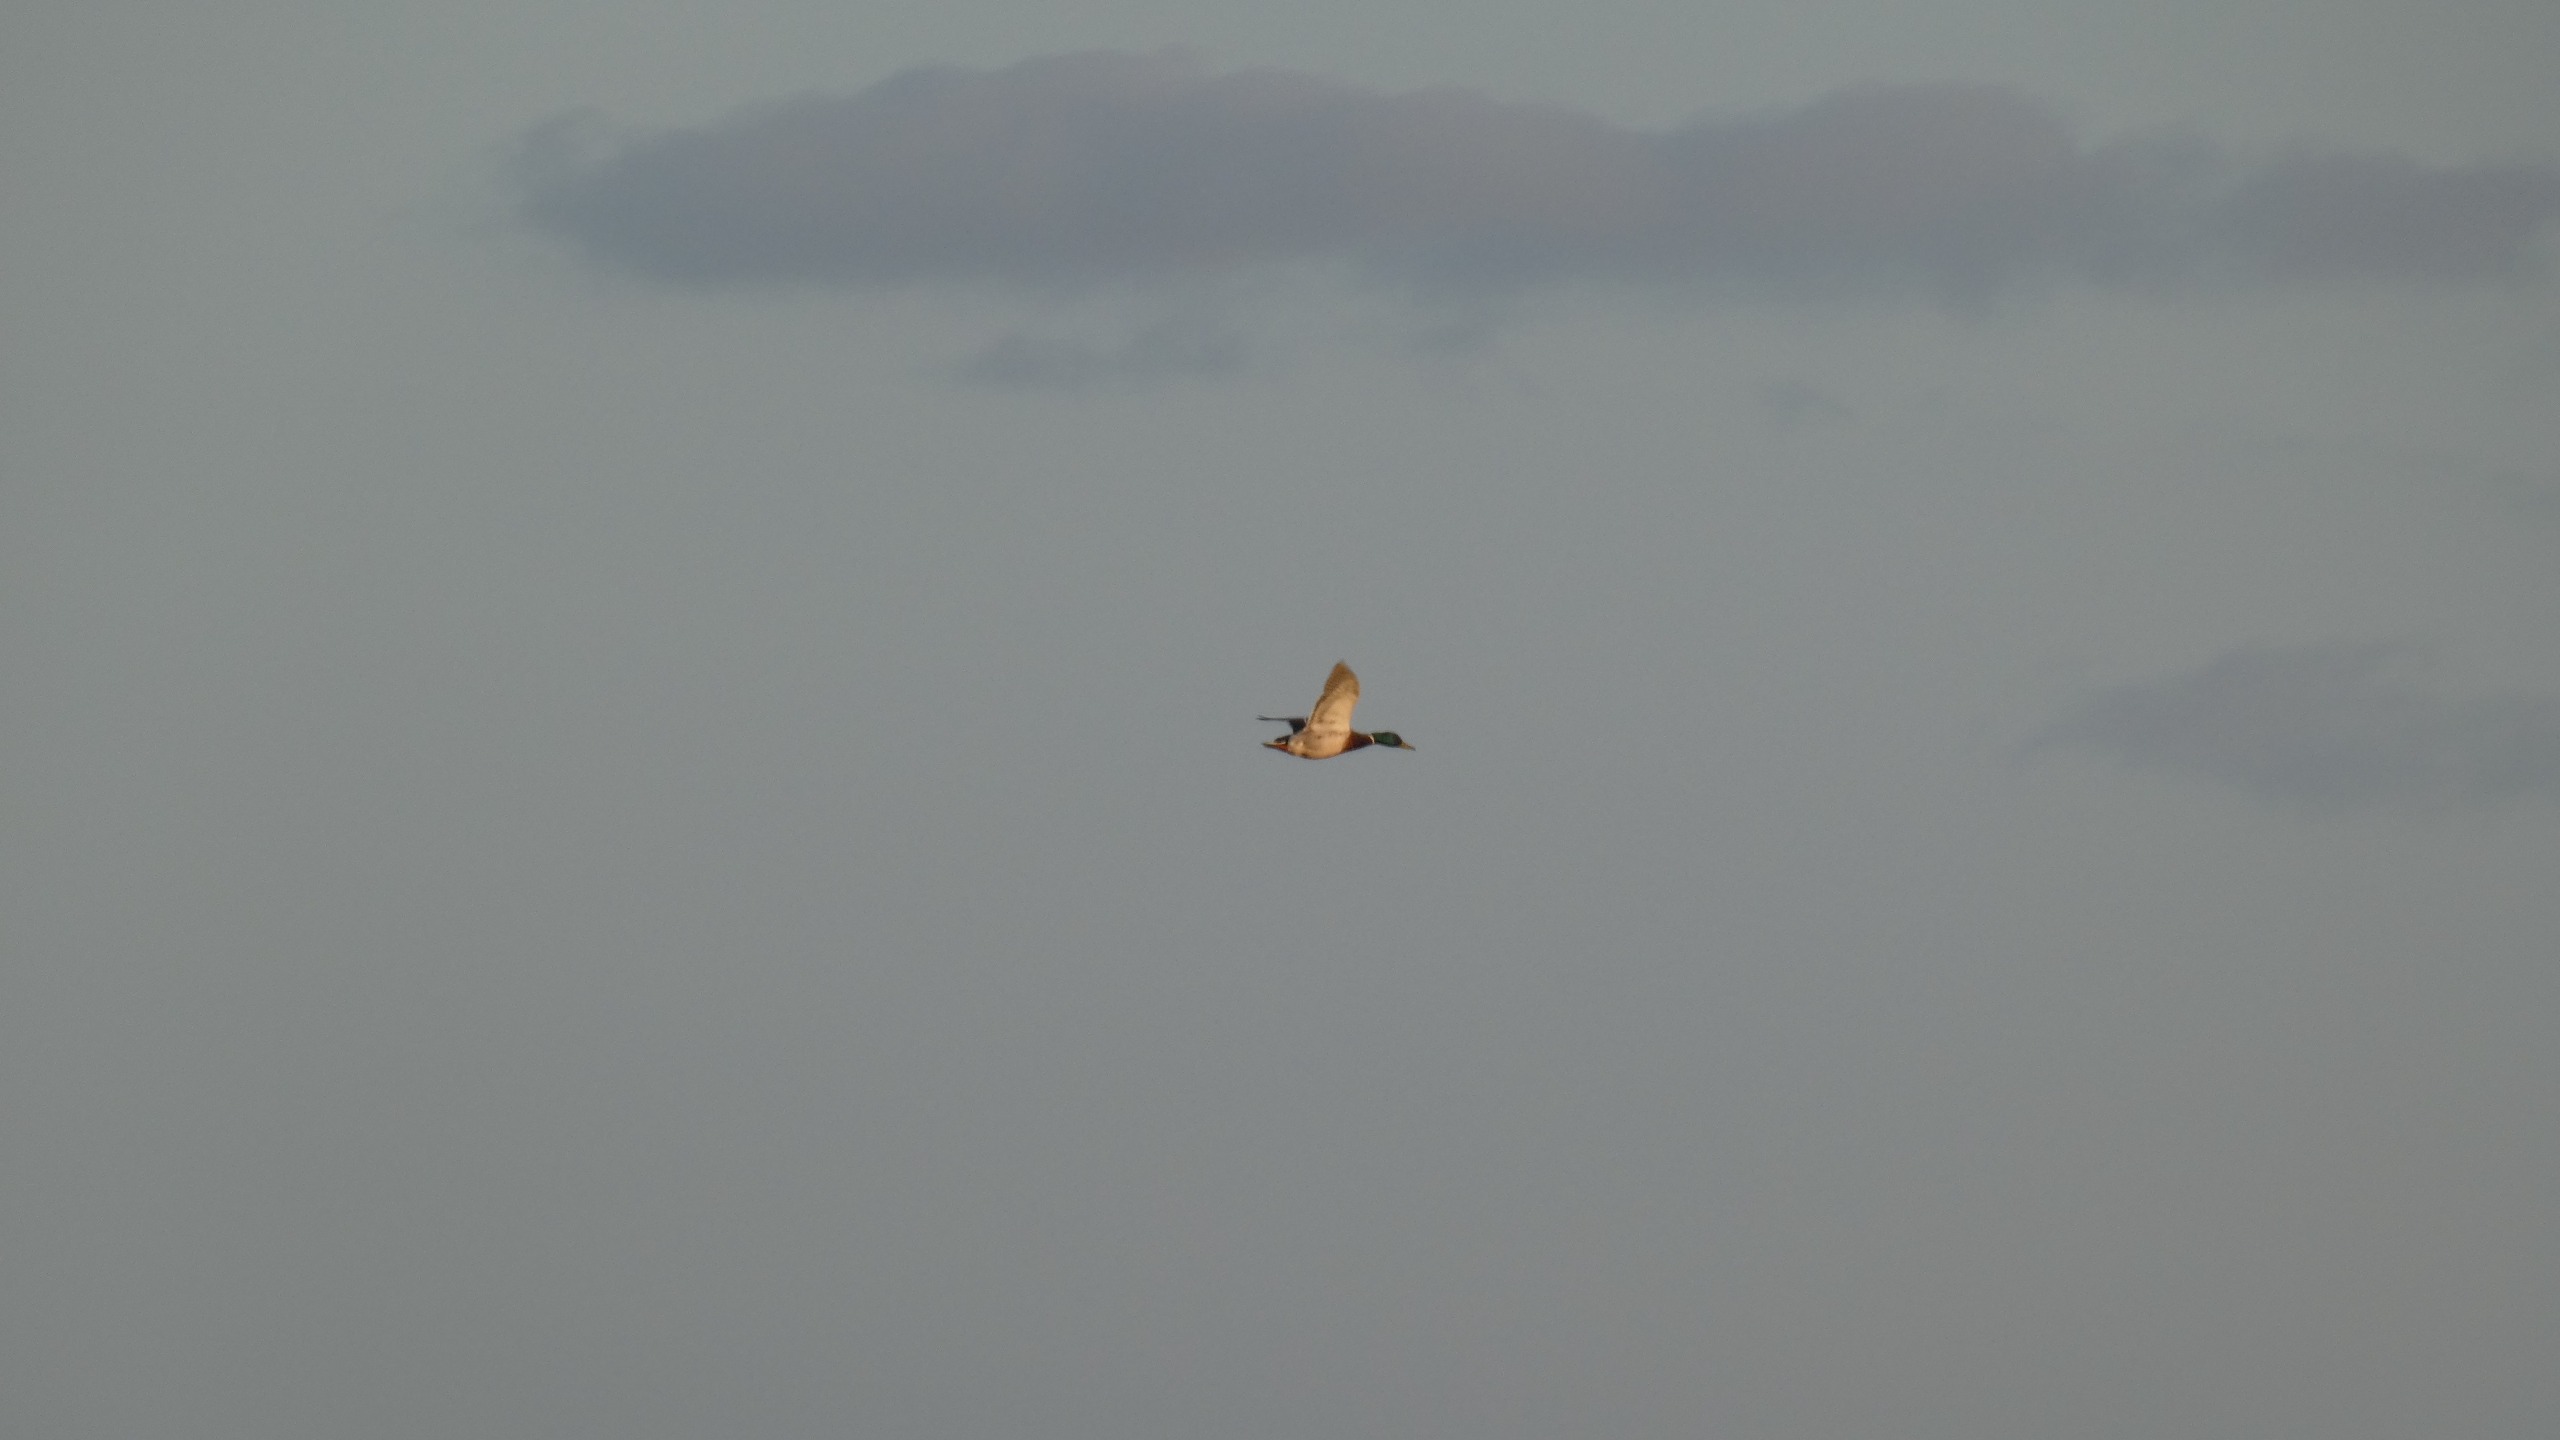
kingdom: Animalia
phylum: Chordata
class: Aves
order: Anseriformes
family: Anatidae
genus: Anas
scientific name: Anas platyrhynchos
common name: Gråand
